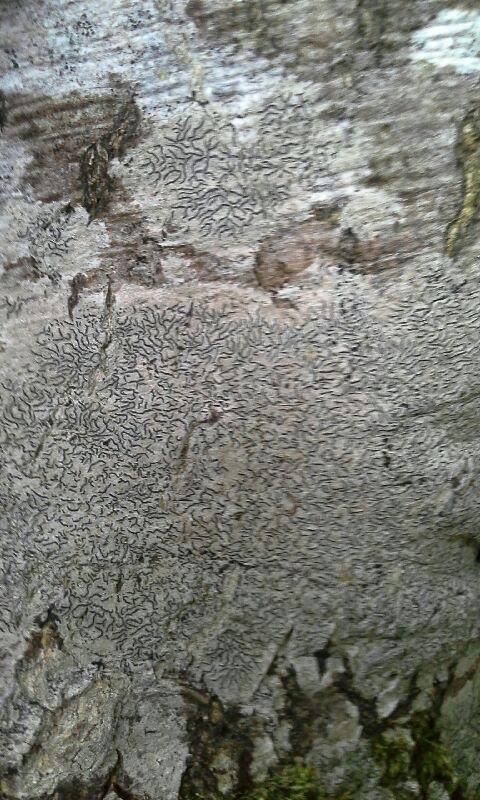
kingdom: Fungi
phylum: Ascomycota
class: Lecanoromycetes
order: Ostropales
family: Graphidaceae
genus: Graphis
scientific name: Graphis scripta
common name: almindelig skriftlav
